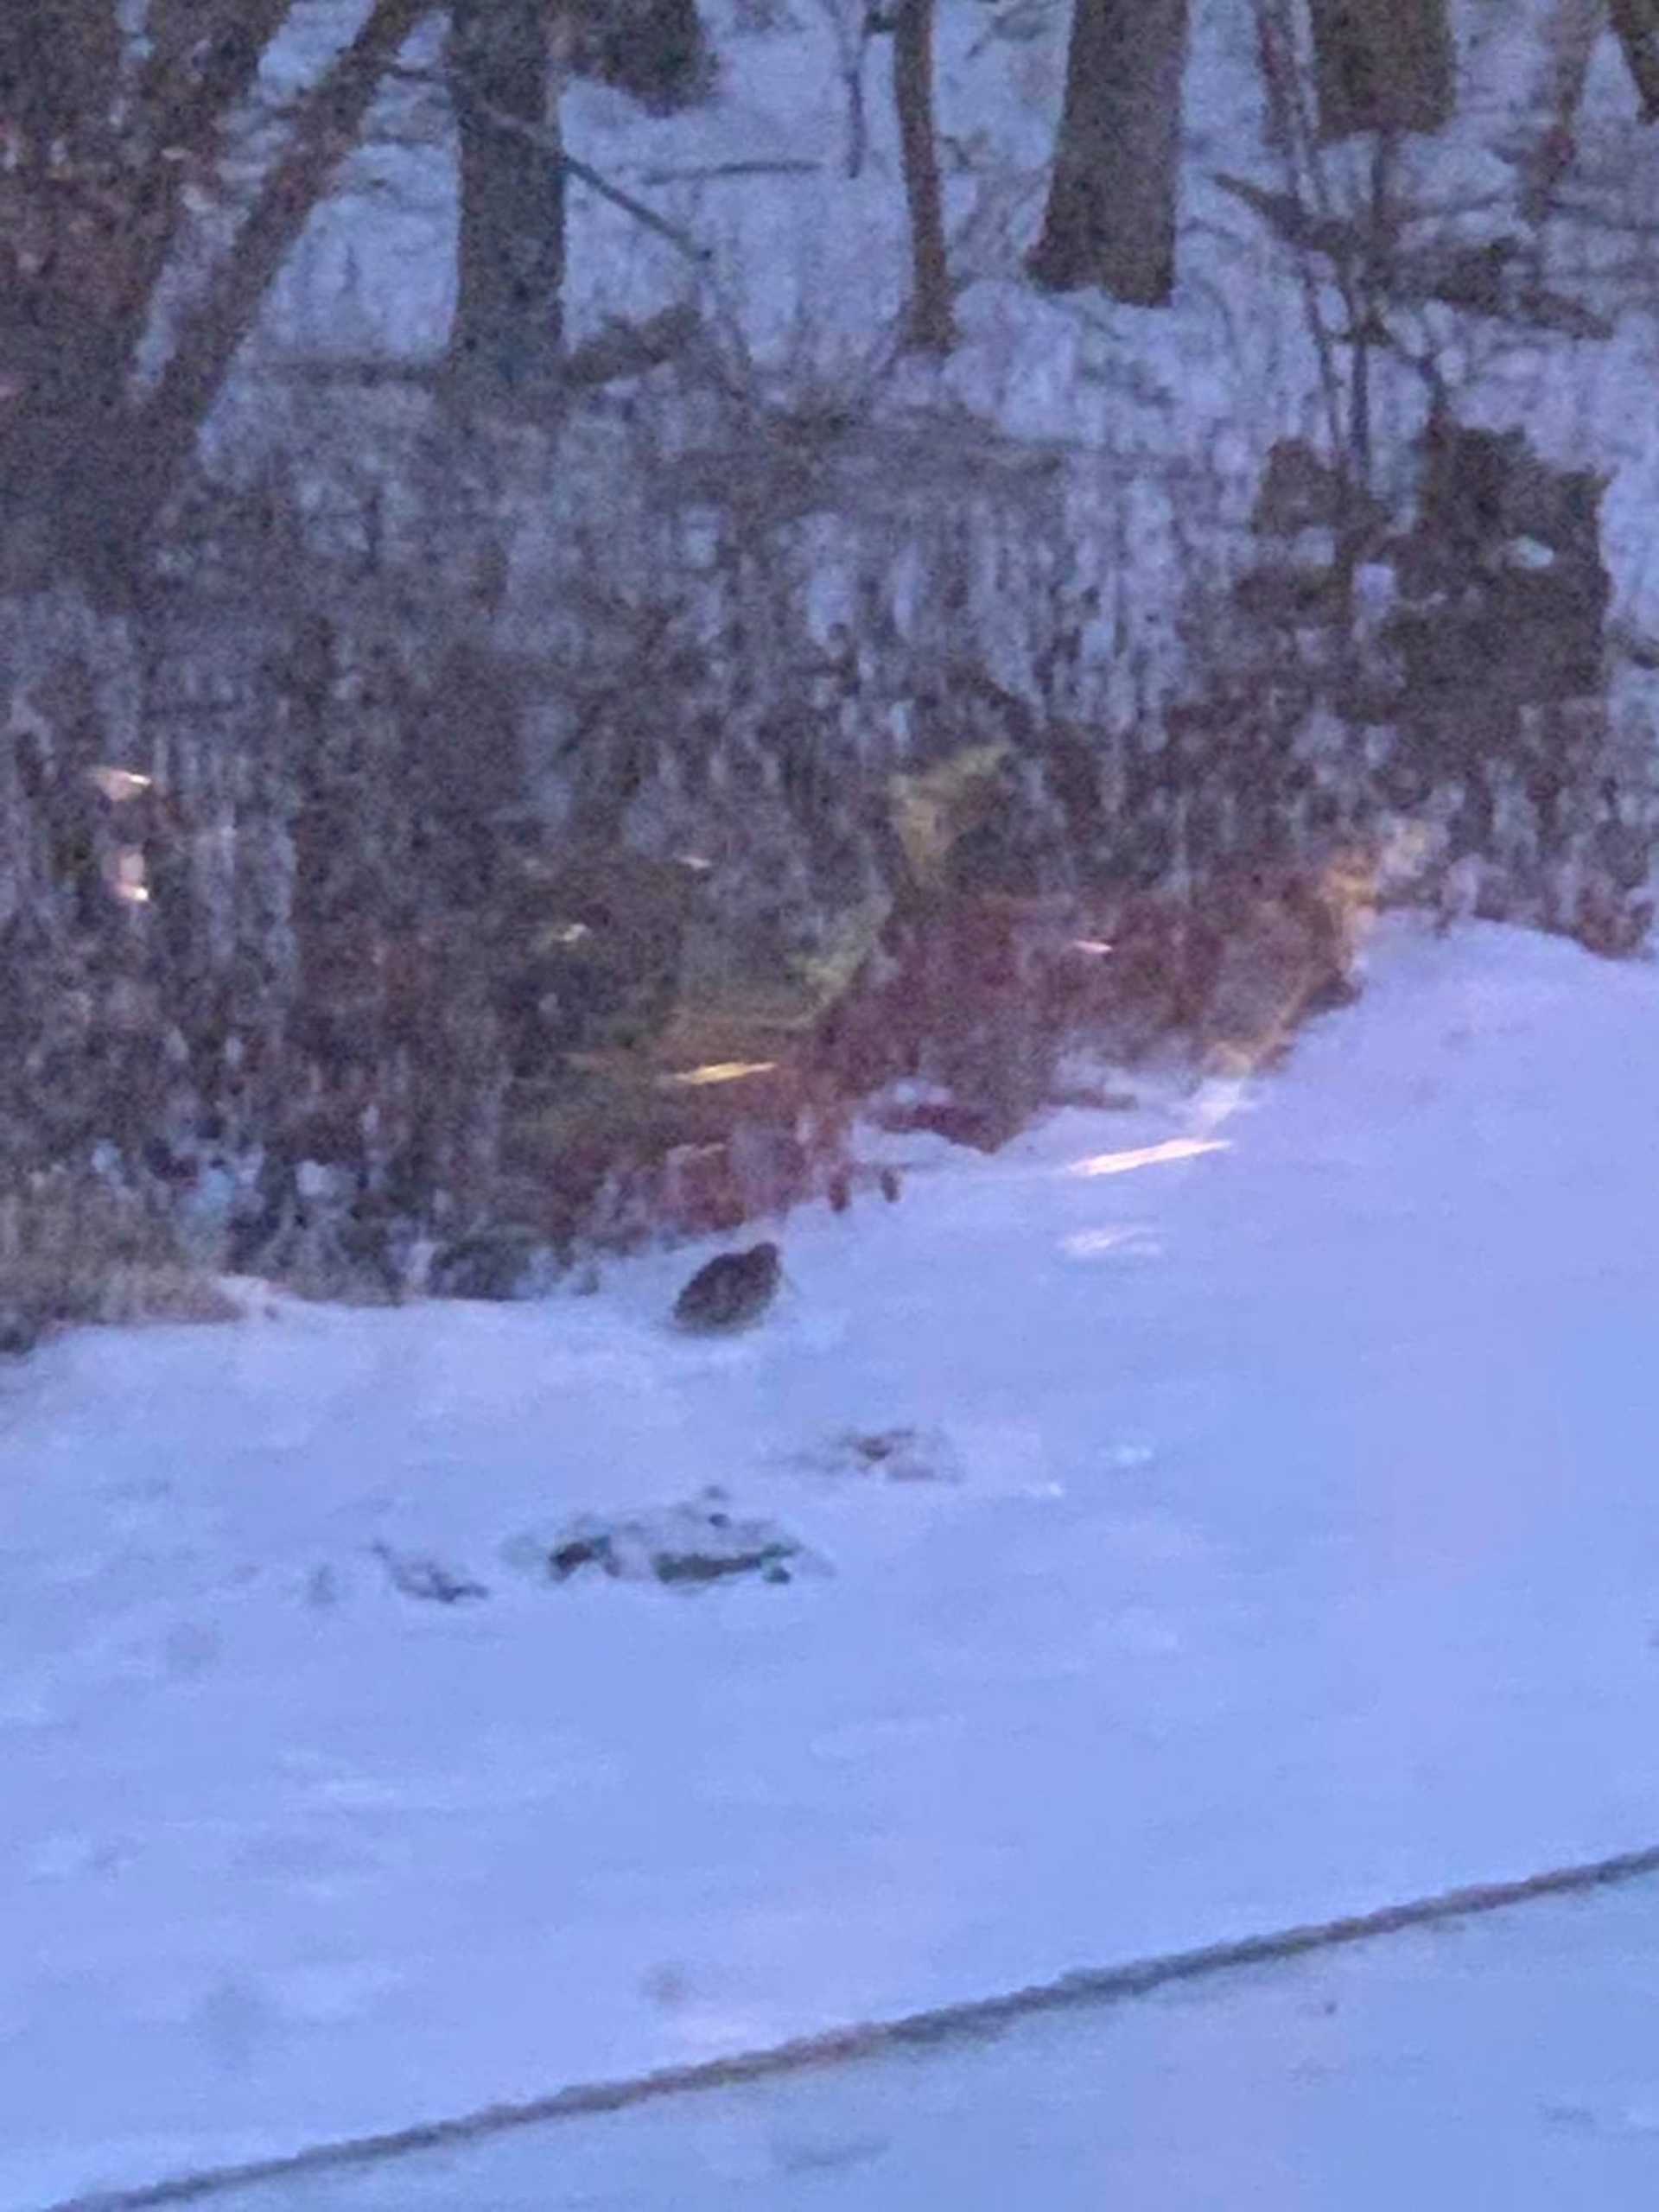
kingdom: Animalia
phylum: Chordata
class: Aves
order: Charadriiformes
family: Scolopacidae
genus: Scolopax
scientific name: Scolopax rusticola
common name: Skovsneppe
